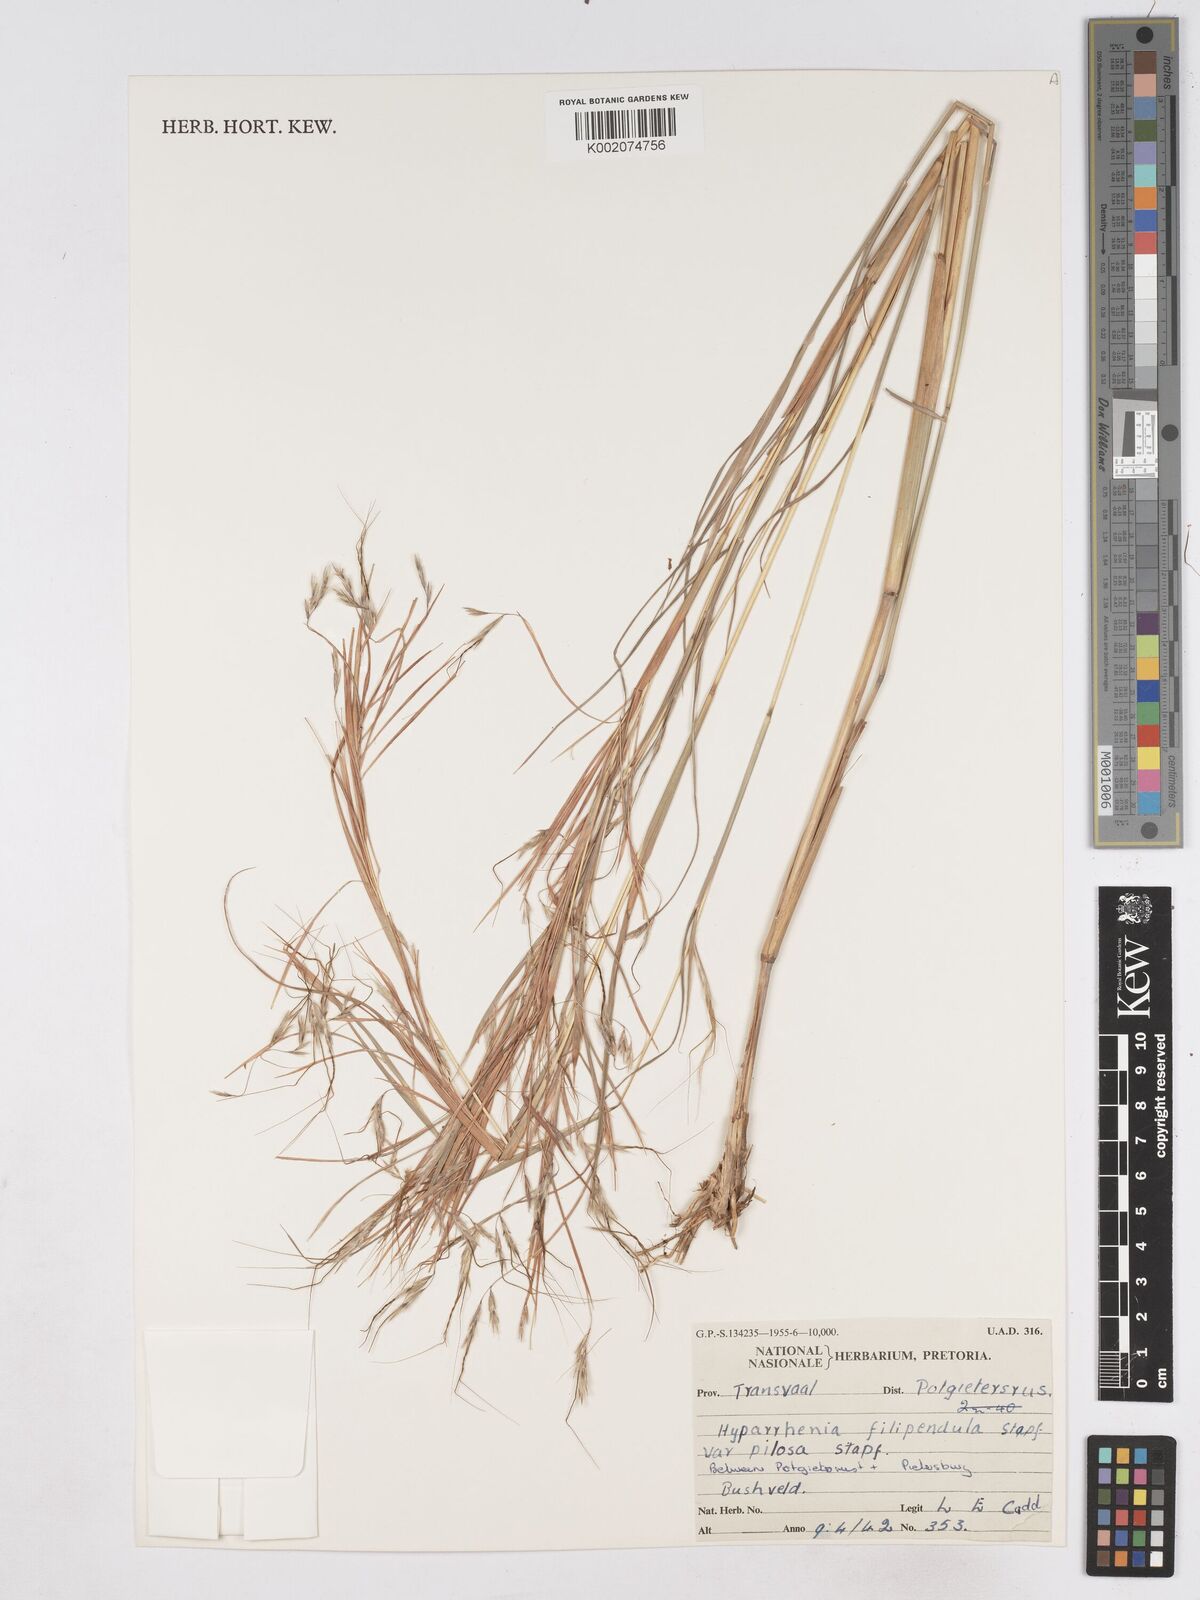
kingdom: Plantae
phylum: Tracheophyta
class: Liliopsida
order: Poales
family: Poaceae
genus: Hyparrhenia
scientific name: Hyparrhenia filipendula
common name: Tambookie grass
